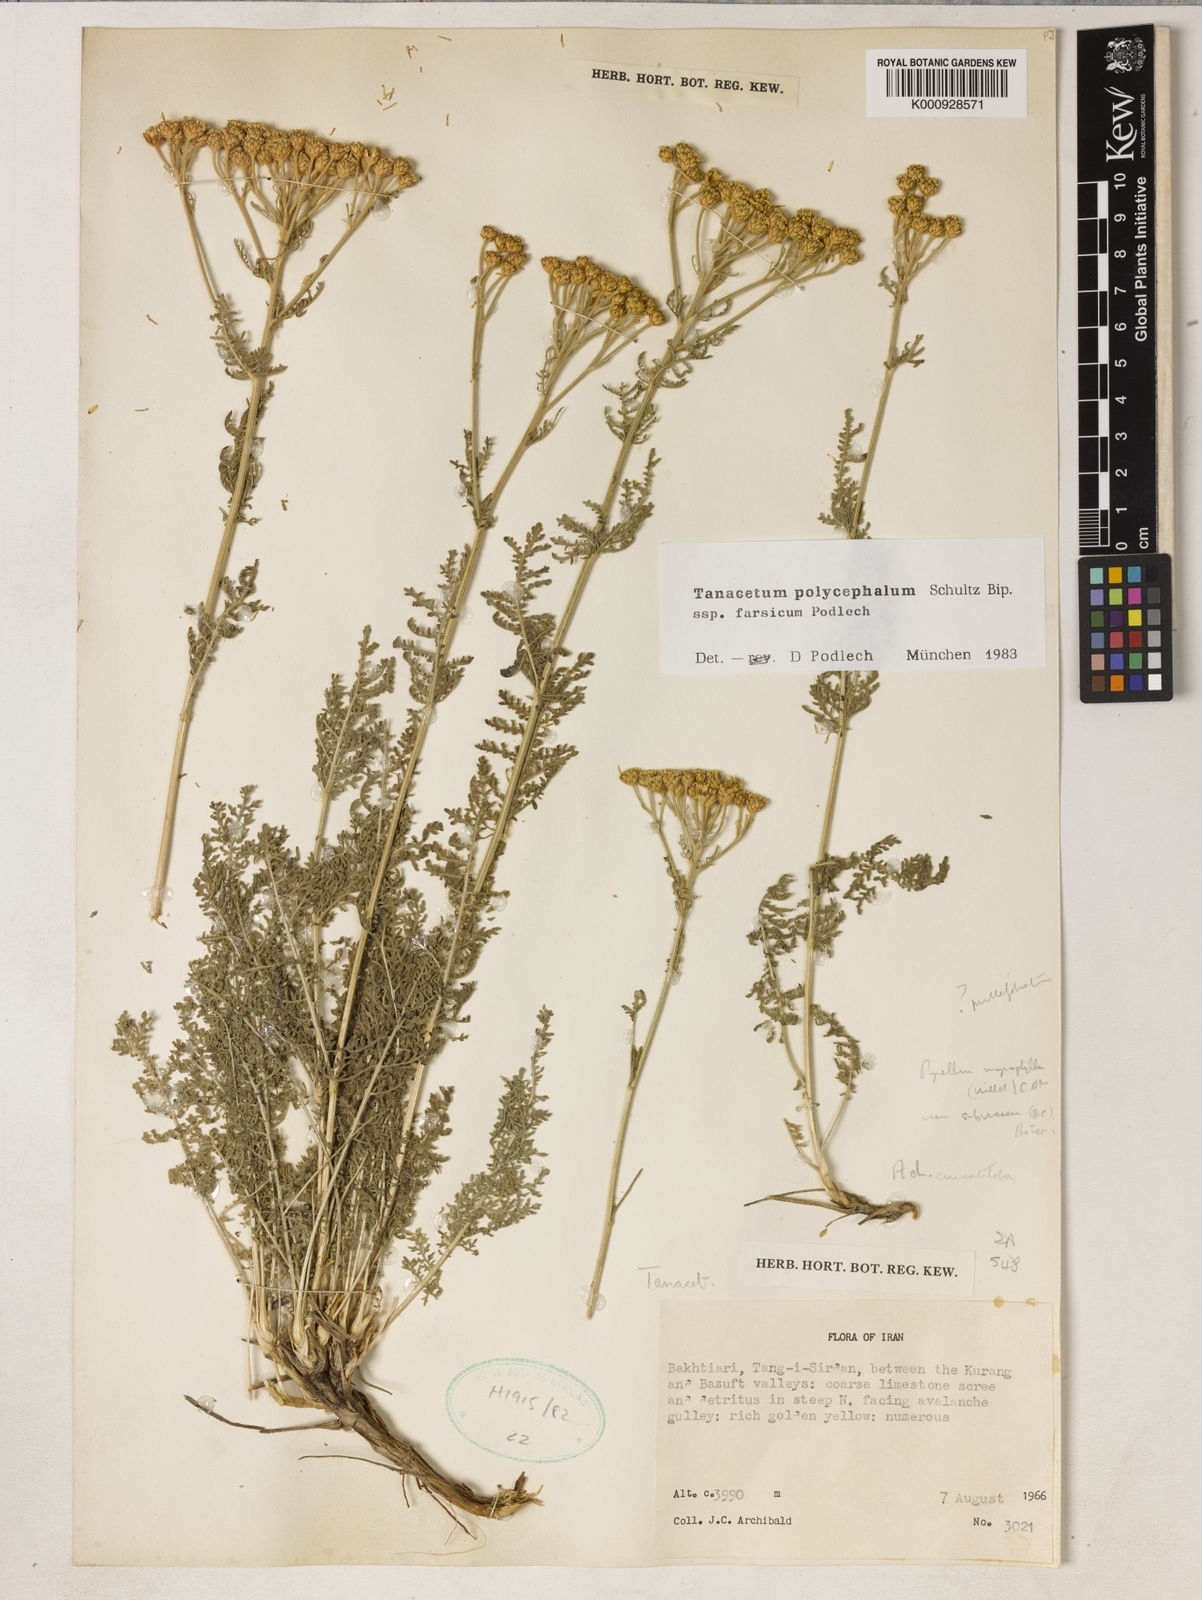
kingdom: Plantae
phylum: Tracheophyta
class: Magnoliopsida
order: Asterales
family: Asteraceae
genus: Tanacetum
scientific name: Tanacetum polycephalum
